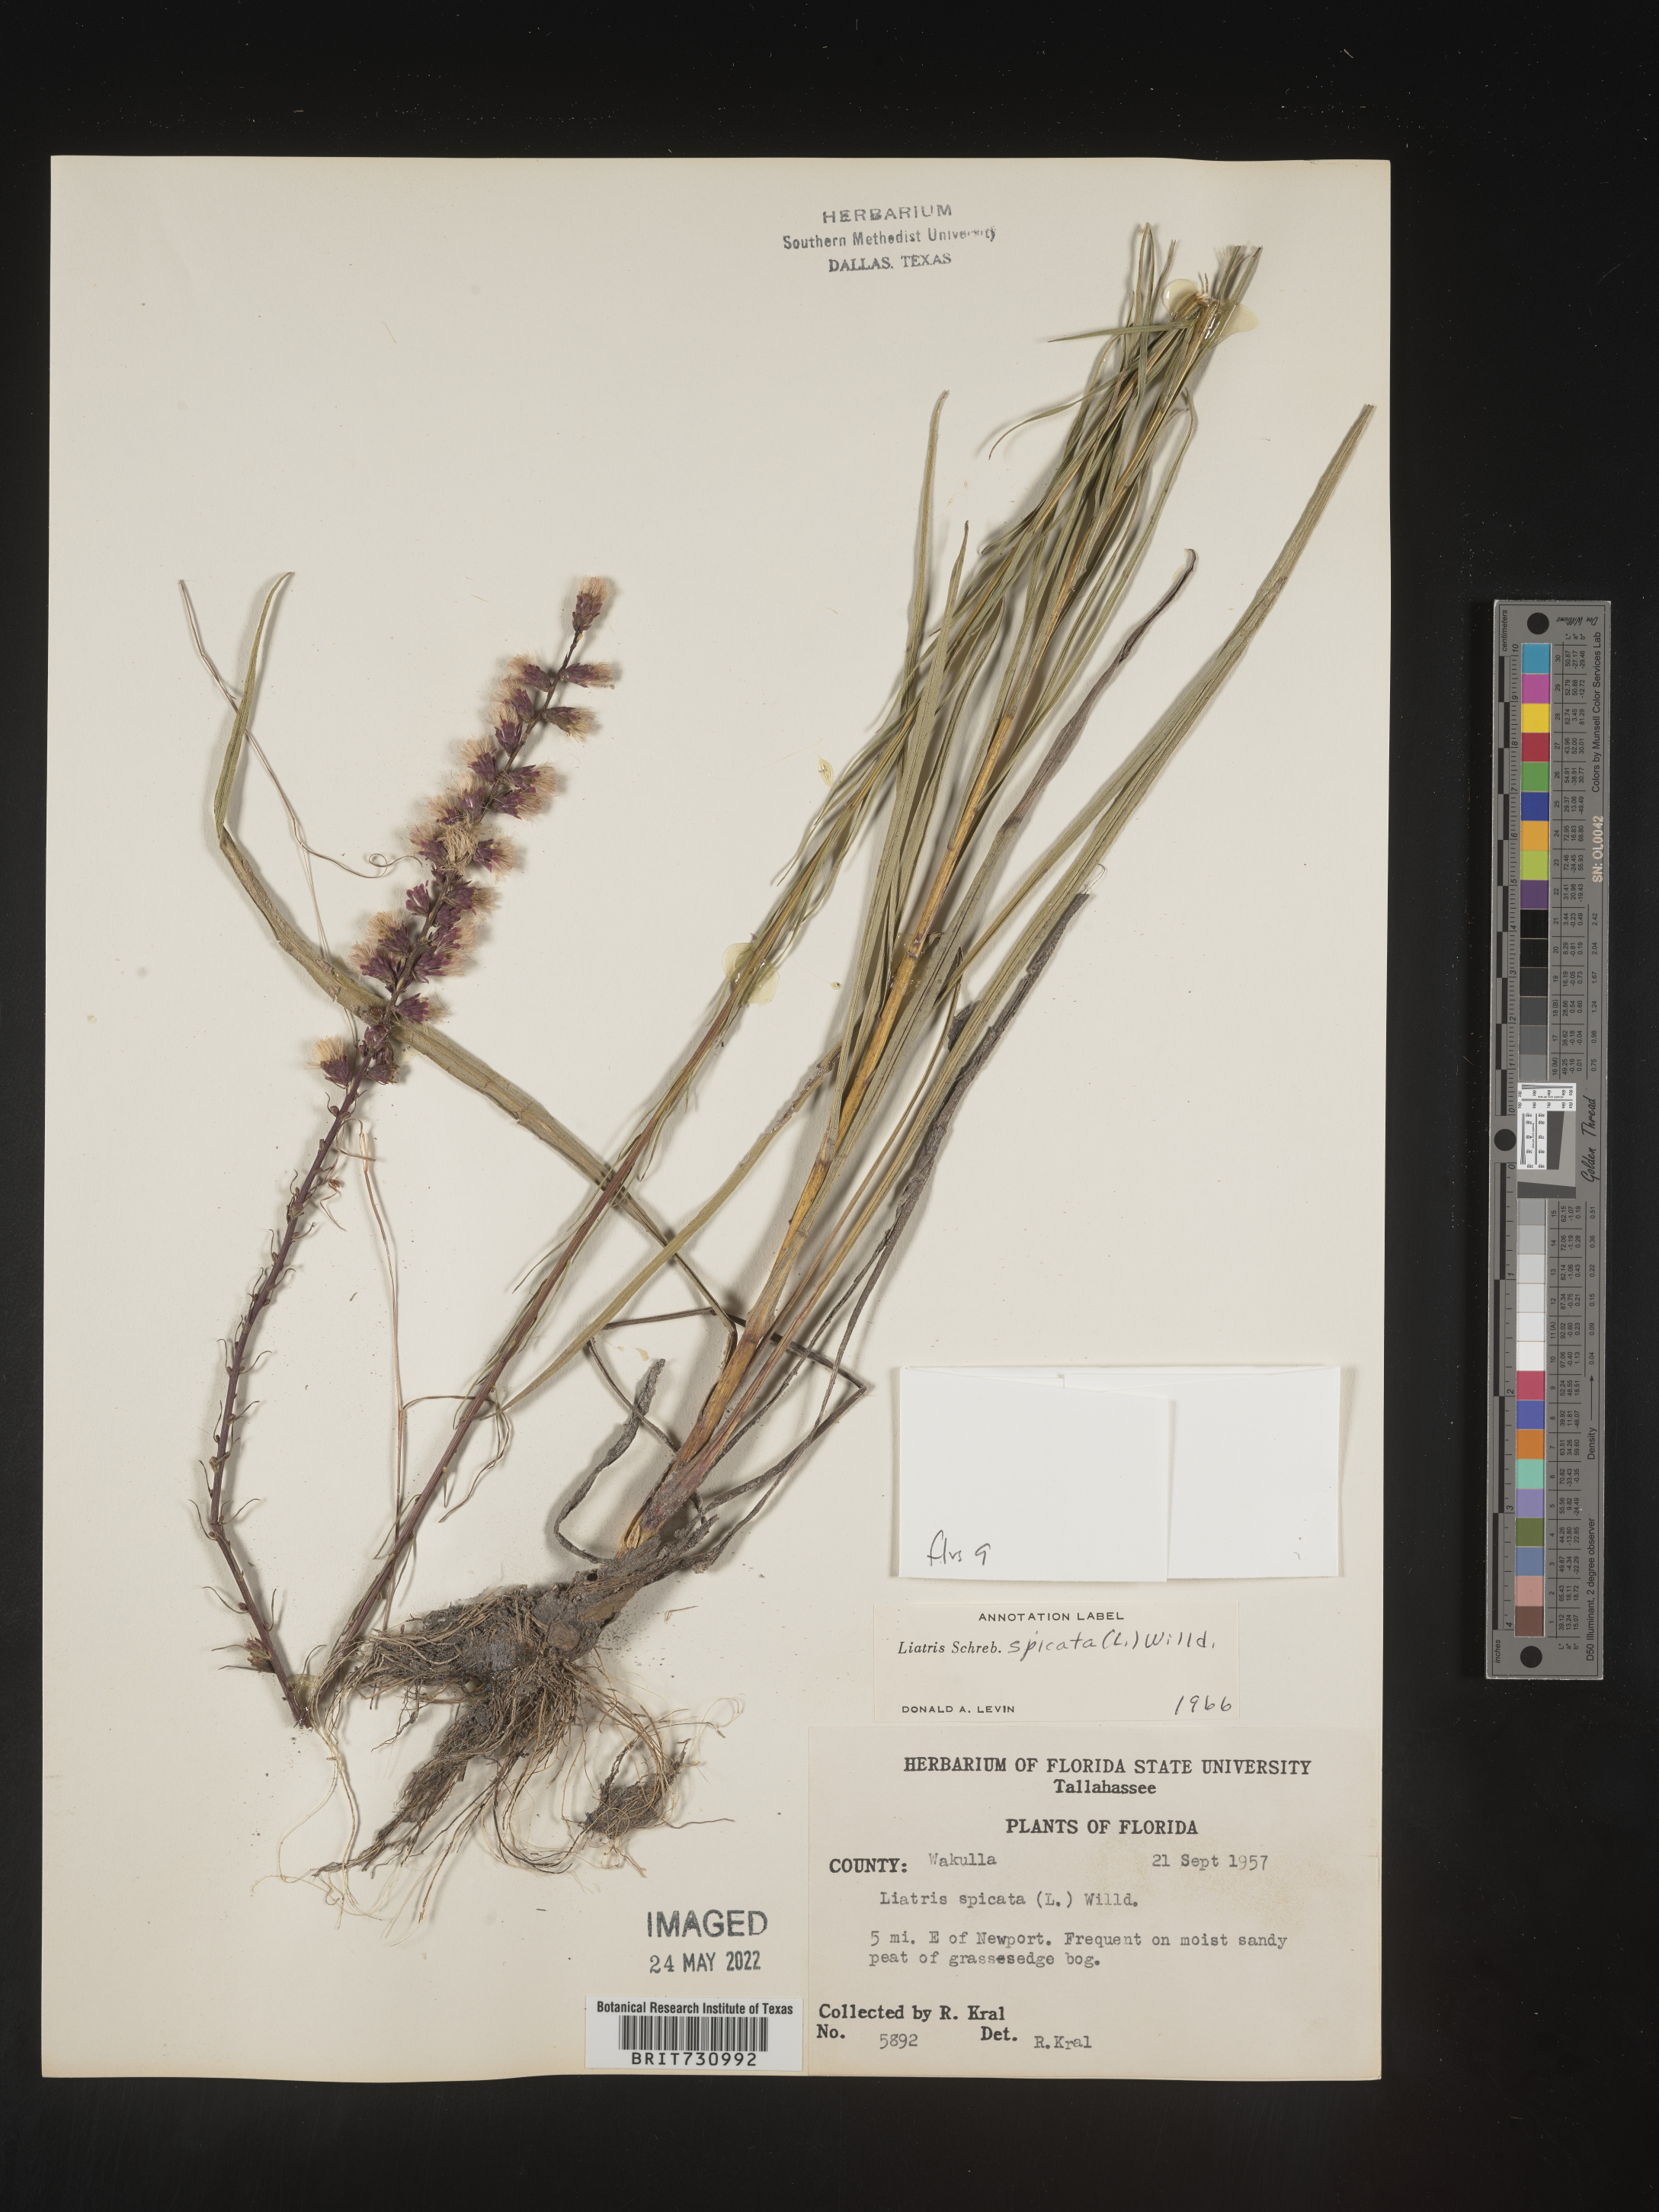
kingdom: Plantae
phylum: Tracheophyta
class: Magnoliopsida
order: Asterales
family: Asteraceae
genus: Liatris
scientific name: Liatris spicata
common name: Florist gayfeather
